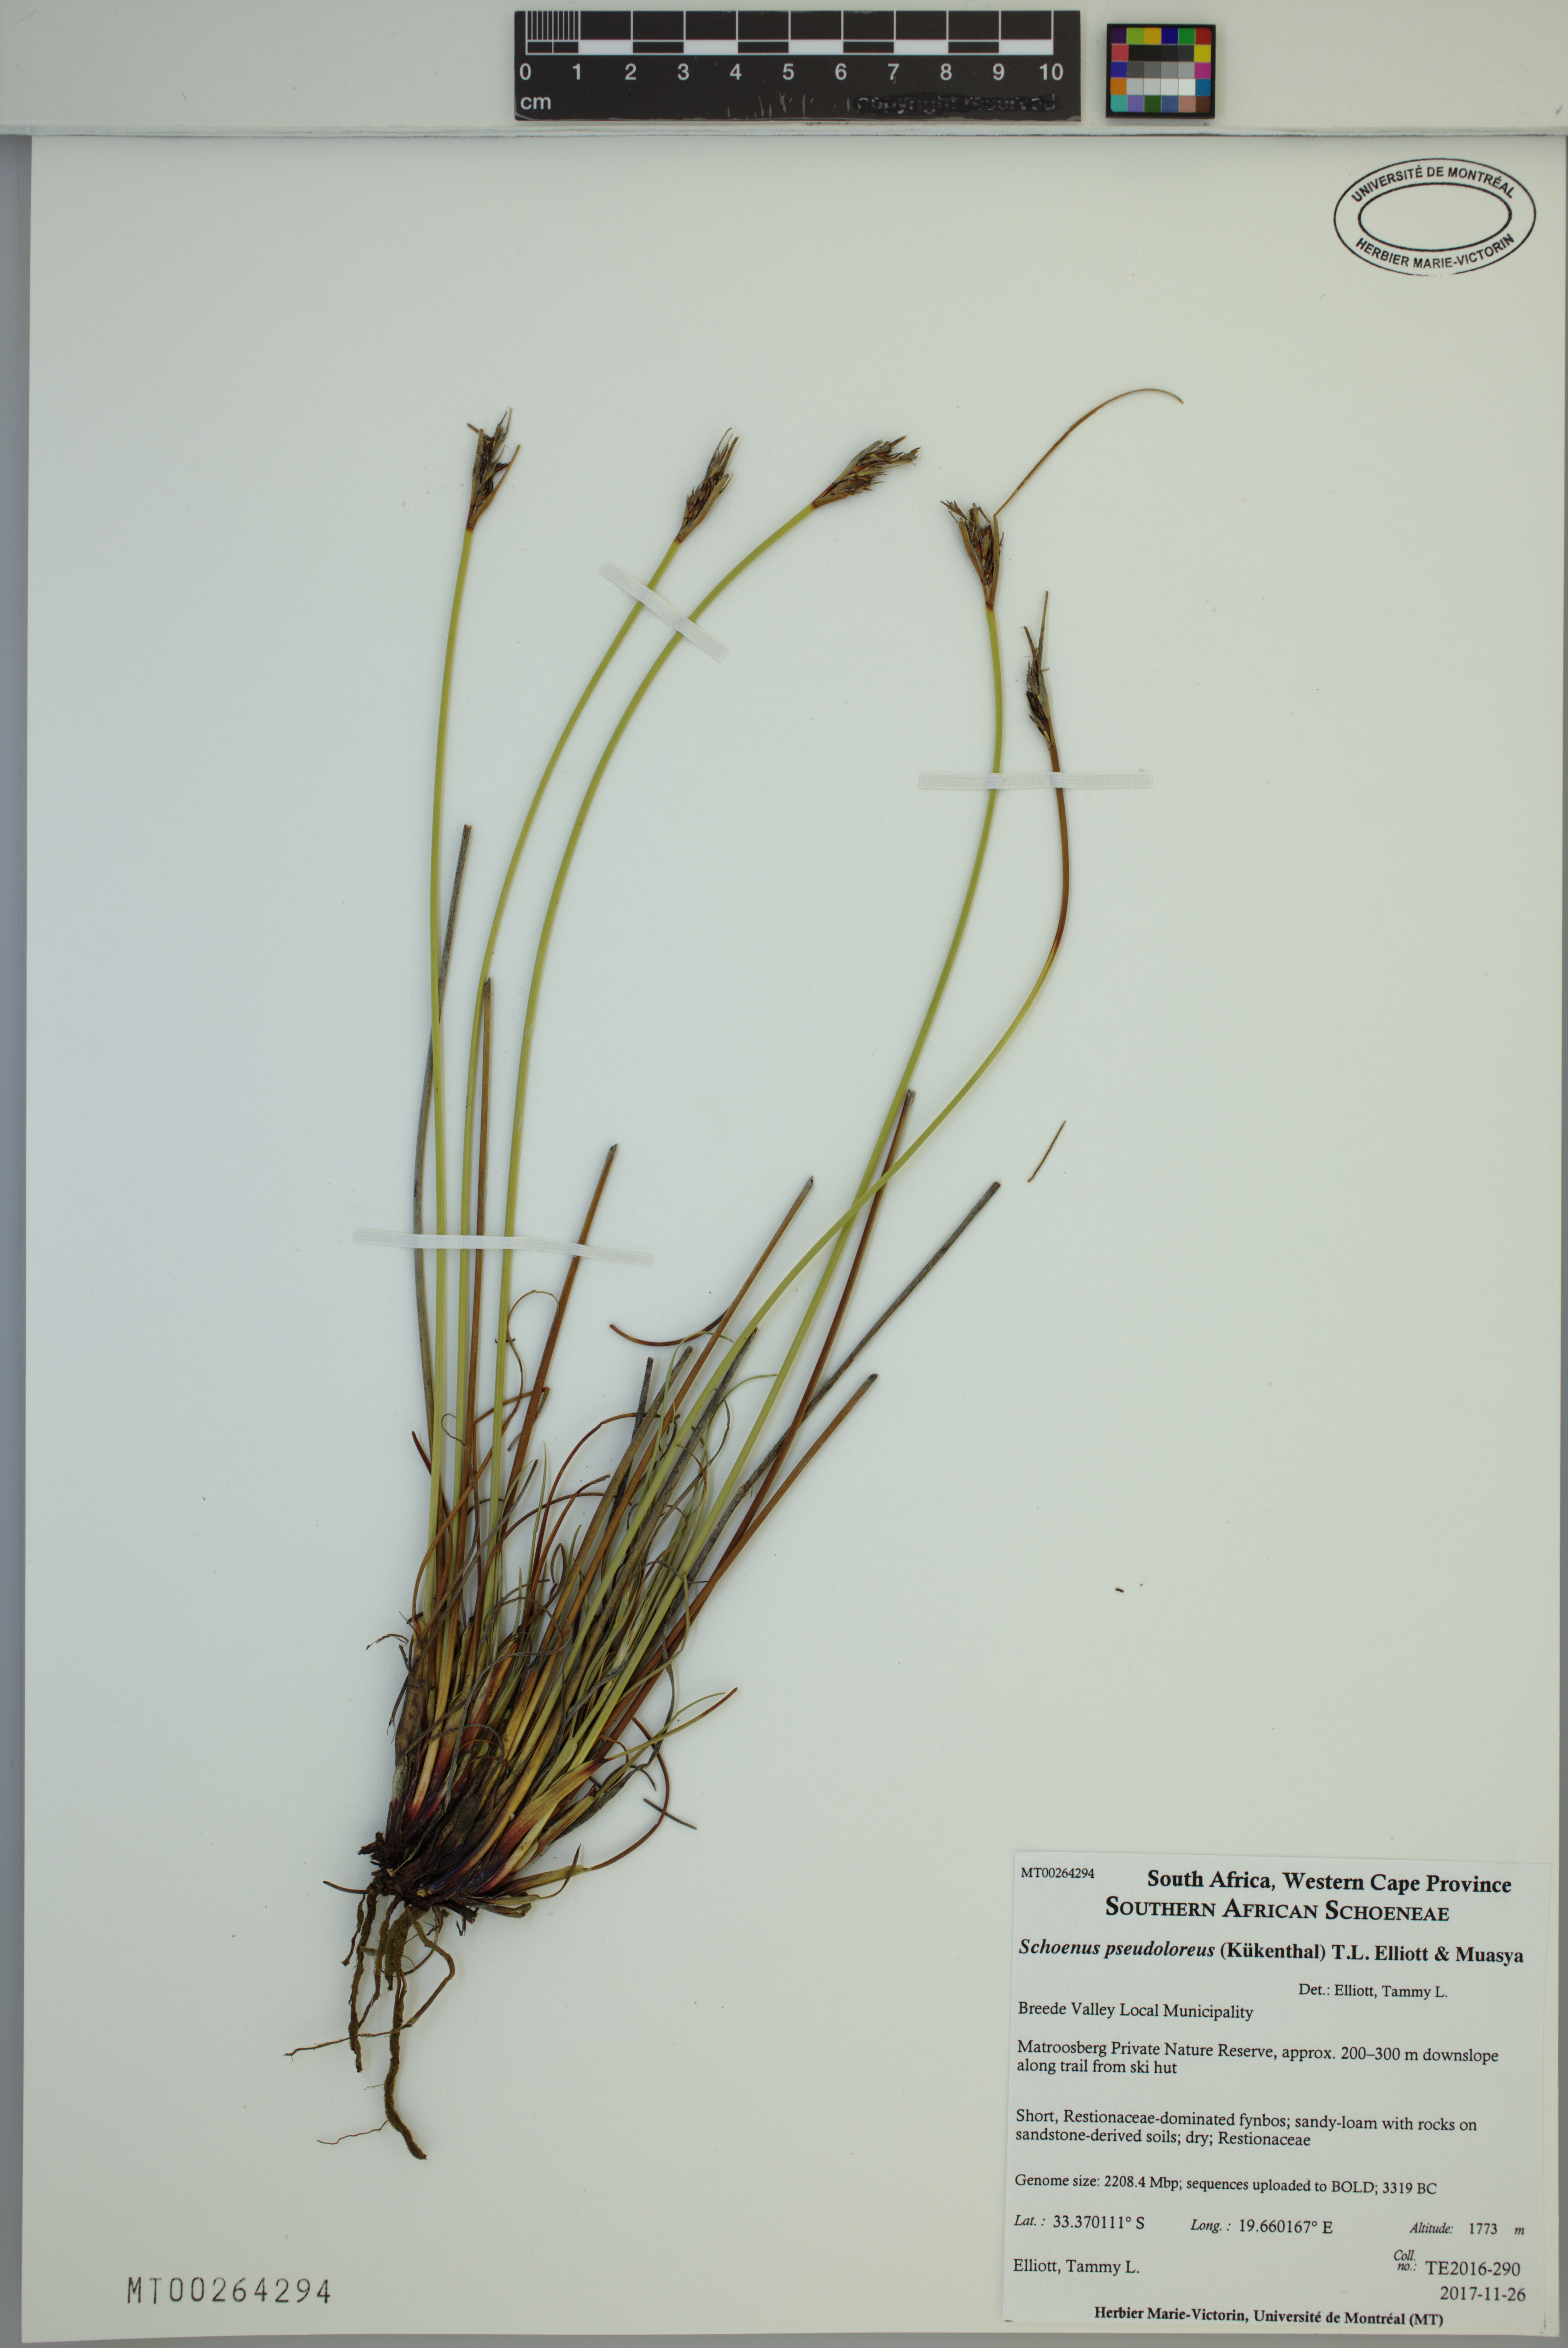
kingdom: Plantae
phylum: Tracheophyta
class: Liliopsida
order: Poales
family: Cyperaceae
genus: Schoenus
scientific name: Schoenus pseudoloreus
